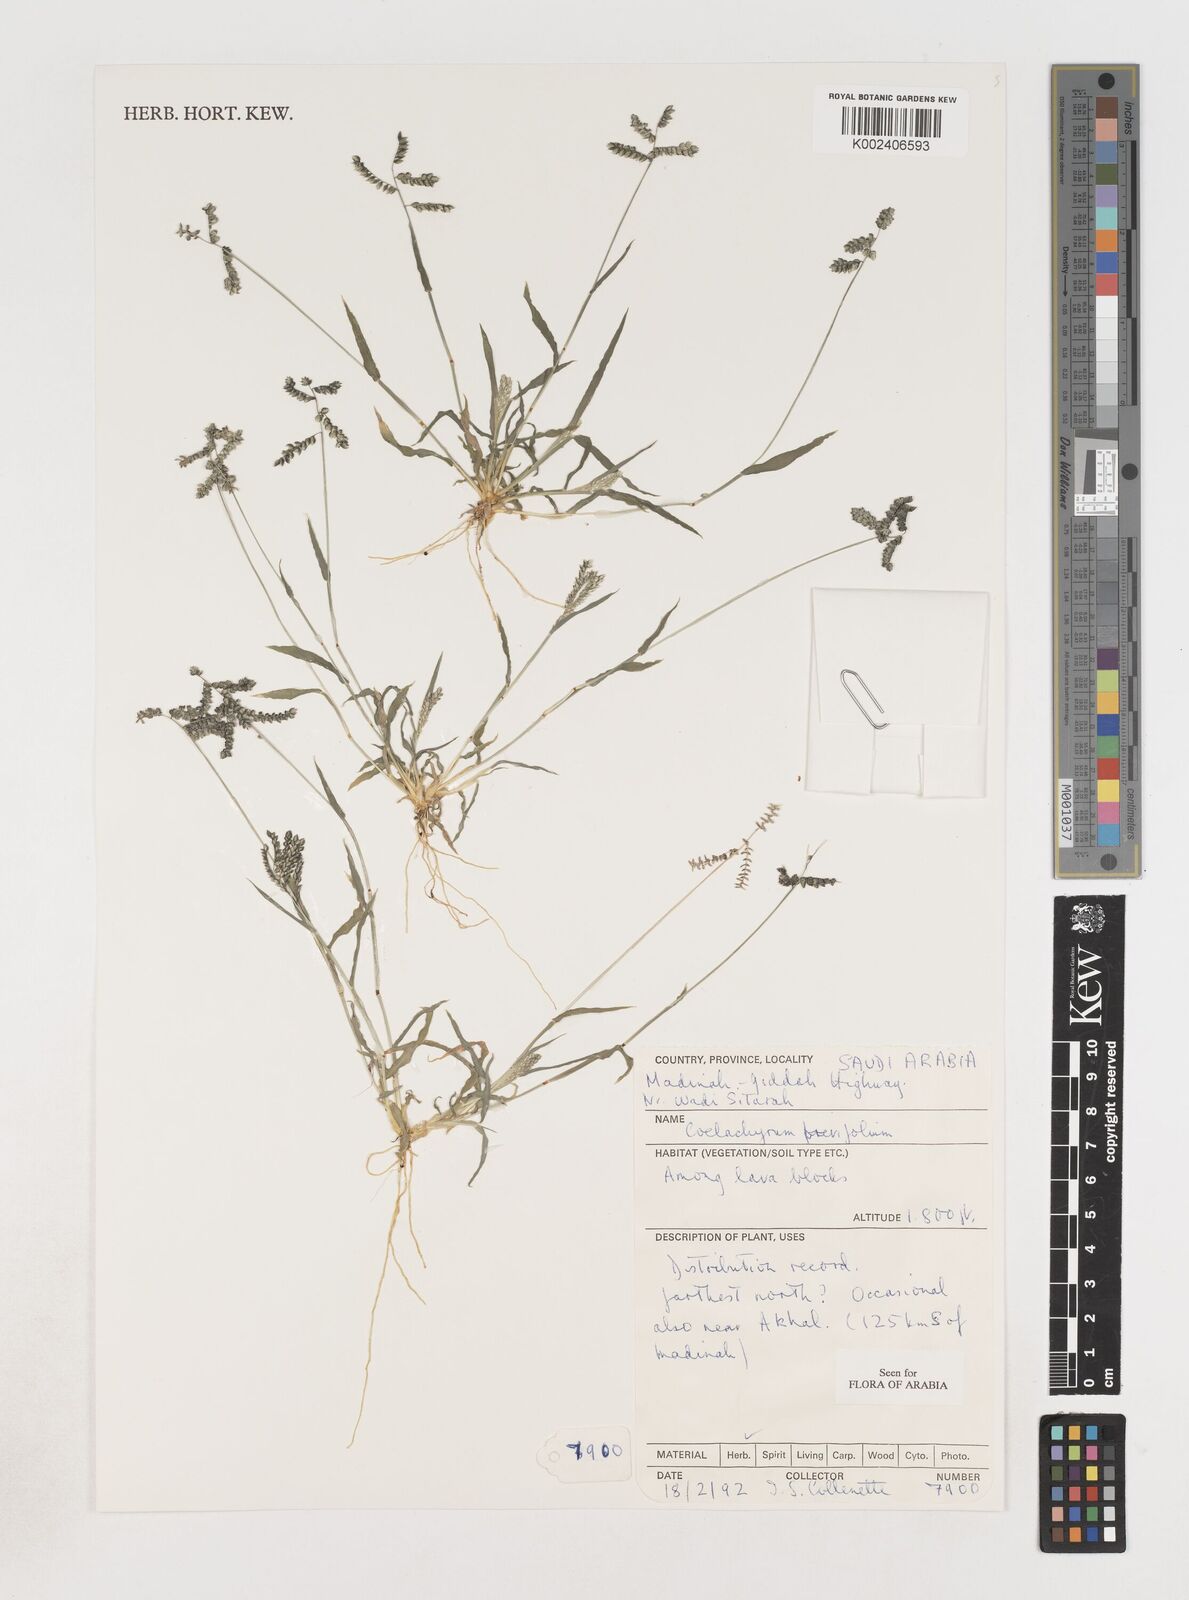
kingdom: Plantae
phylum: Tracheophyta
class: Liliopsida
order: Poales
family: Poaceae
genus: Coelachyrum
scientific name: Coelachyrum brevifolium
